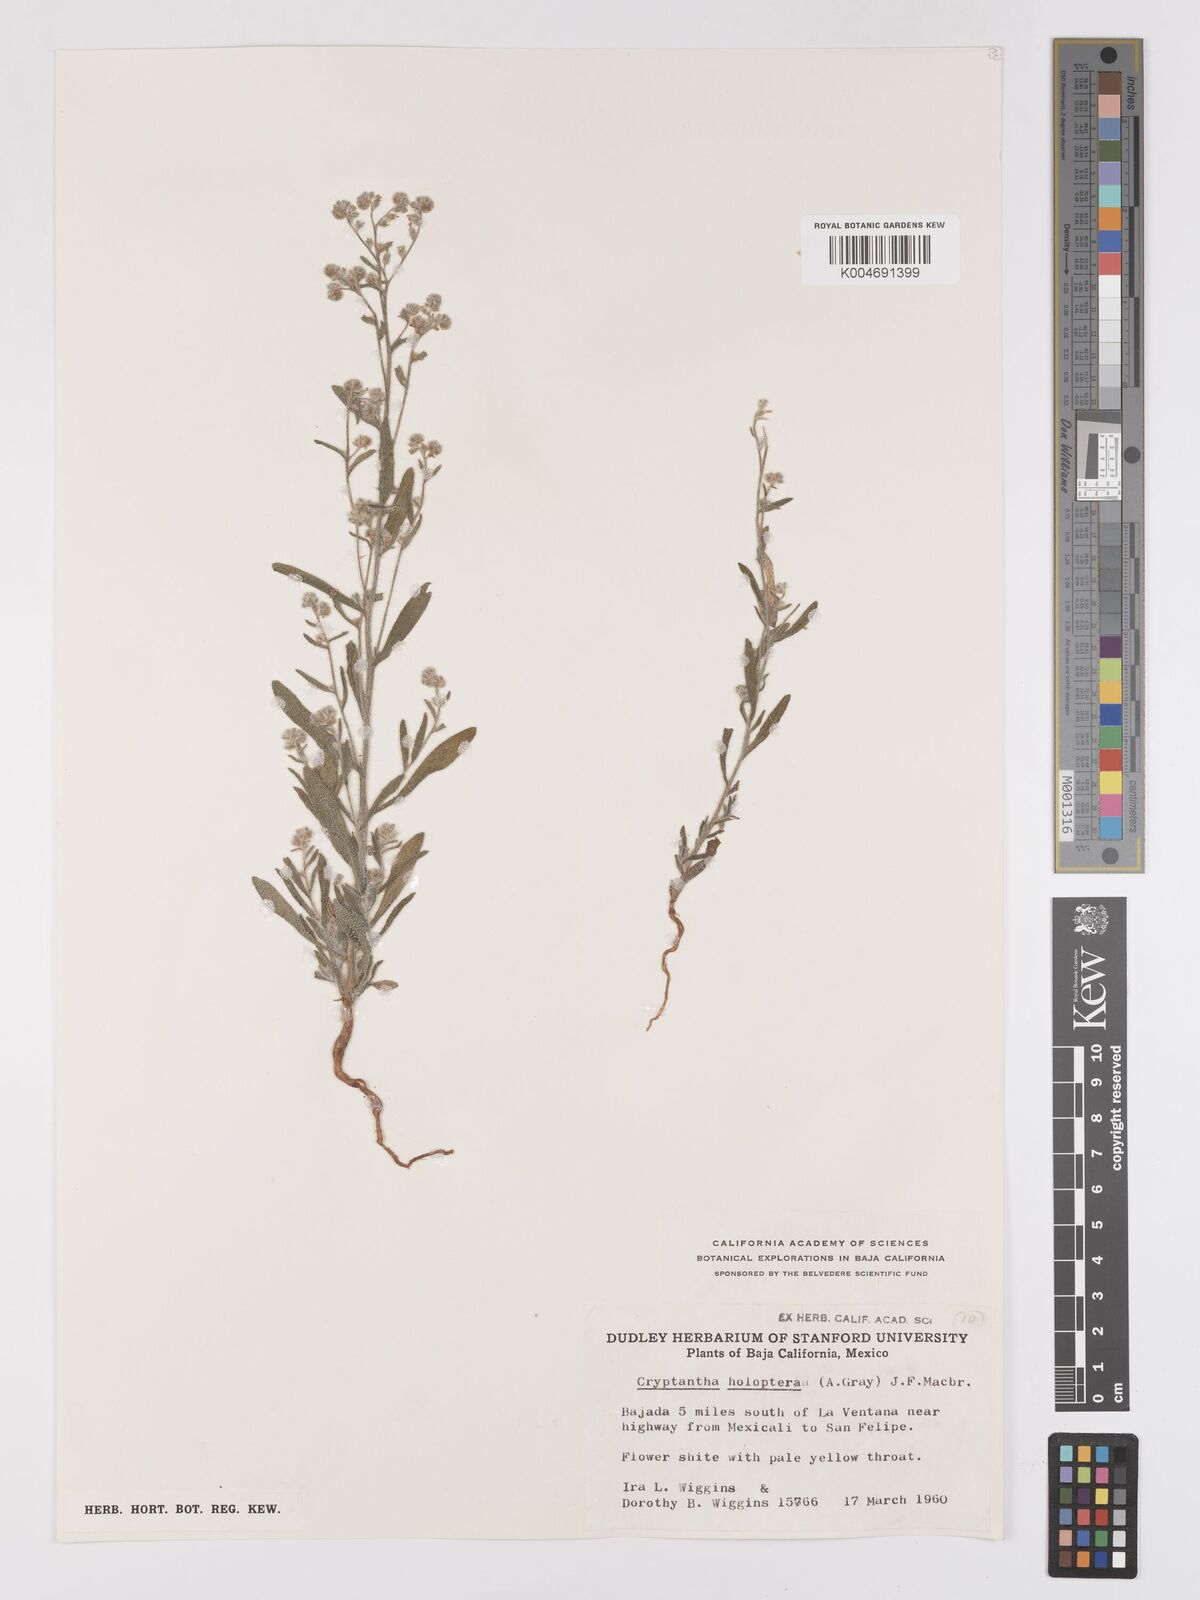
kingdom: Plantae
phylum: Tracheophyta
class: Magnoliopsida
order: Boraginales
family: Boraginaceae
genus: Johnstonella
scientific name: Johnstonella holoptera
